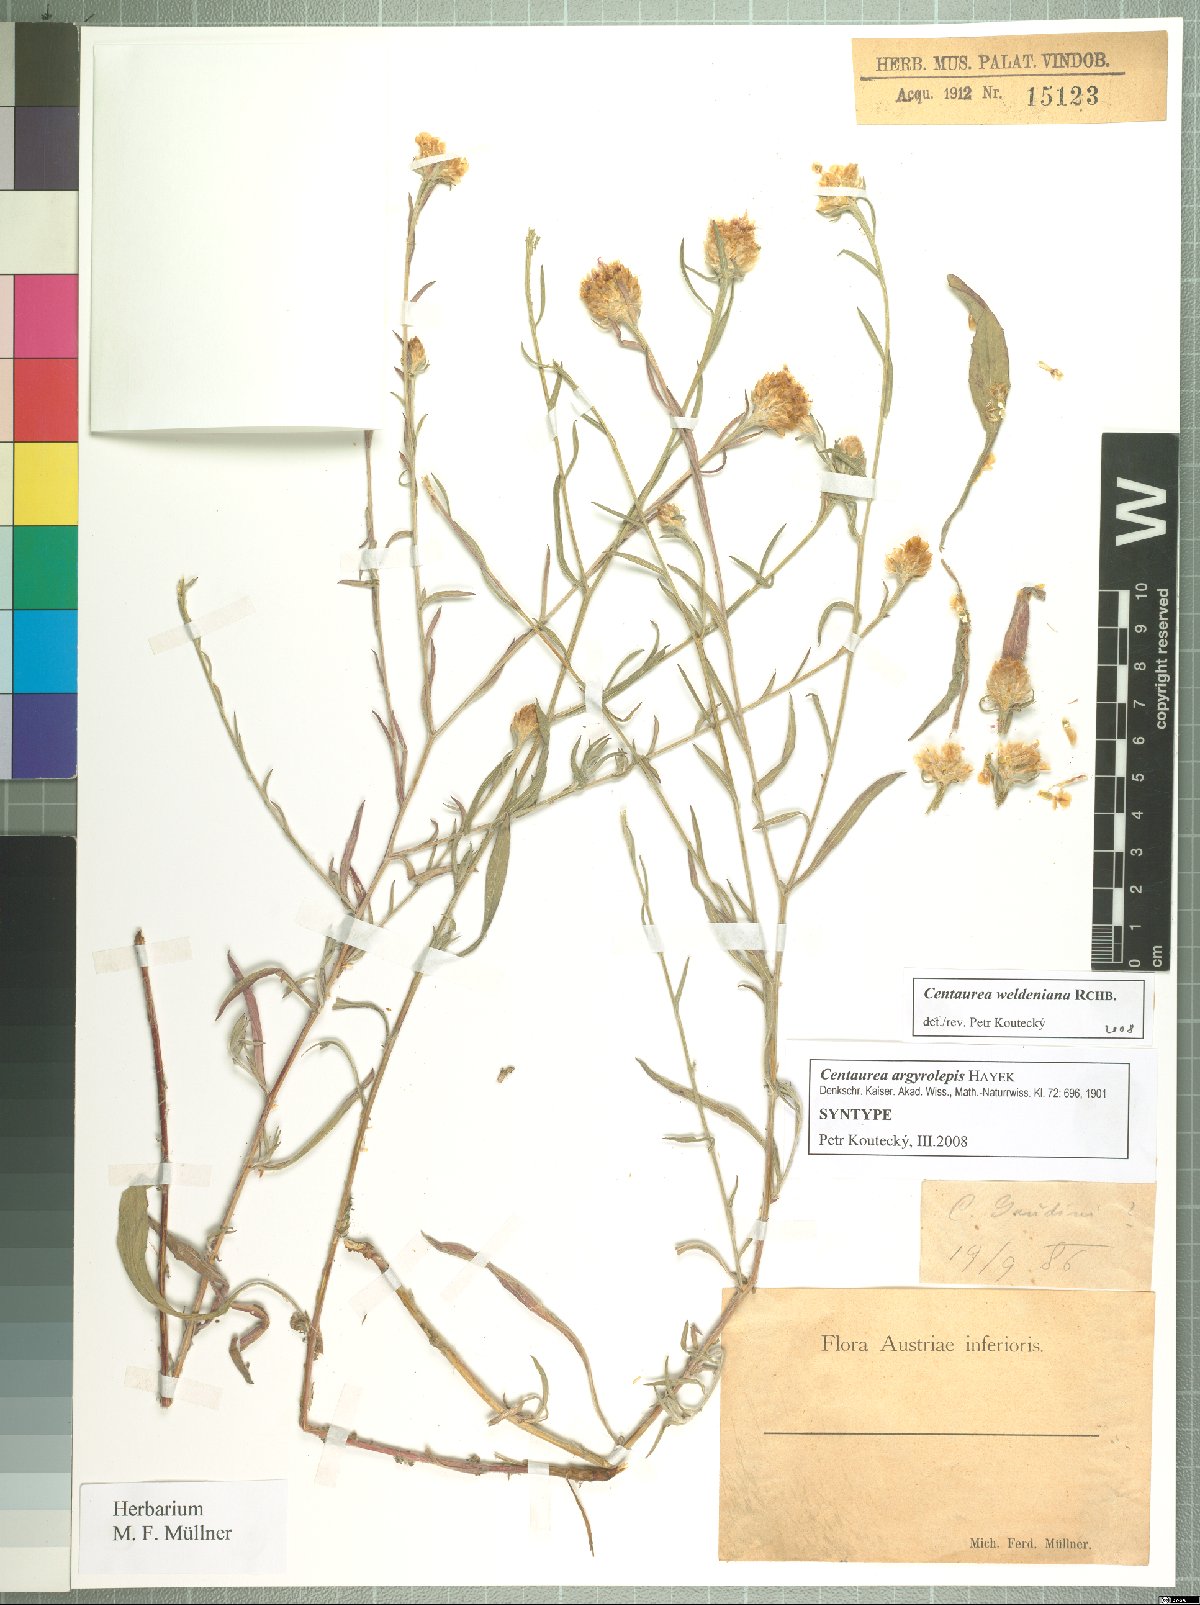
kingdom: Plantae
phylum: Tracheophyta
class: Magnoliopsida
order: Asterales
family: Asteraceae
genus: Centaurea
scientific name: Centaurea jacea
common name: Brown knapweed
